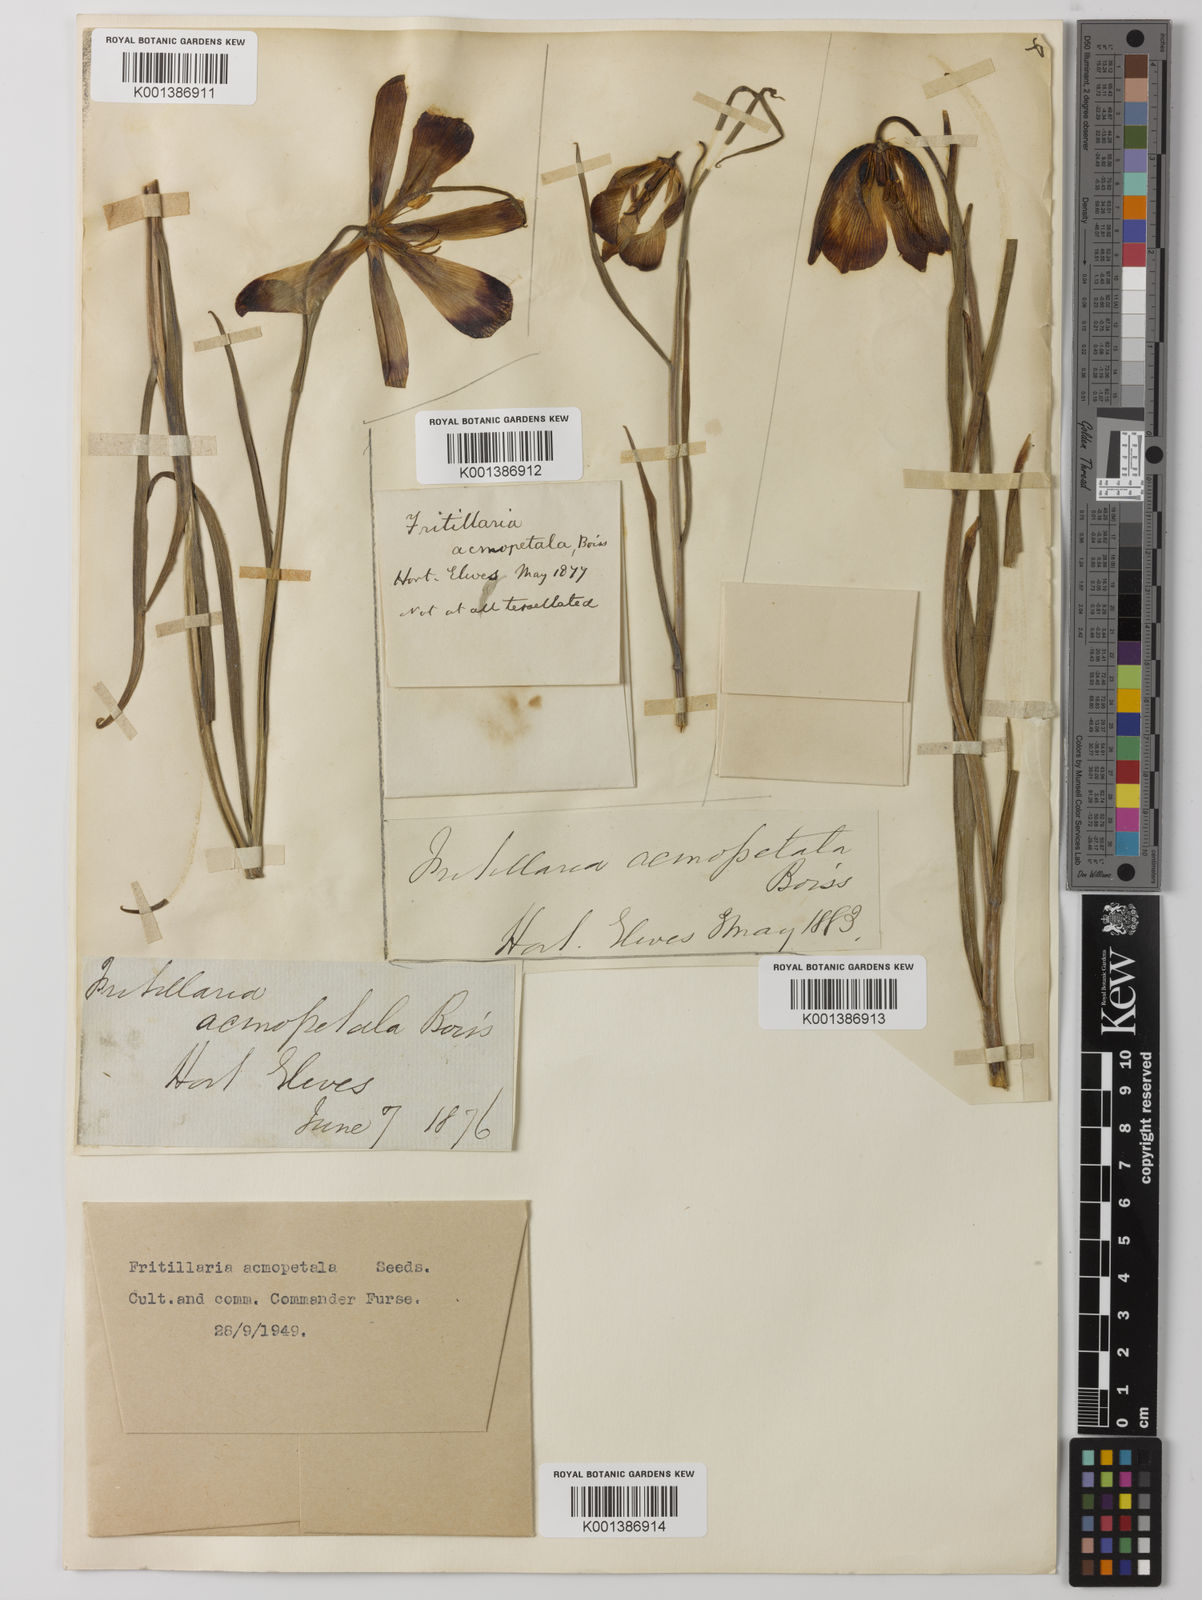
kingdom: Plantae
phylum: Tracheophyta
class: Liliopsida
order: Liliales
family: Liliaceae
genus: Fritillaria
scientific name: Fritillaria acmopetala
